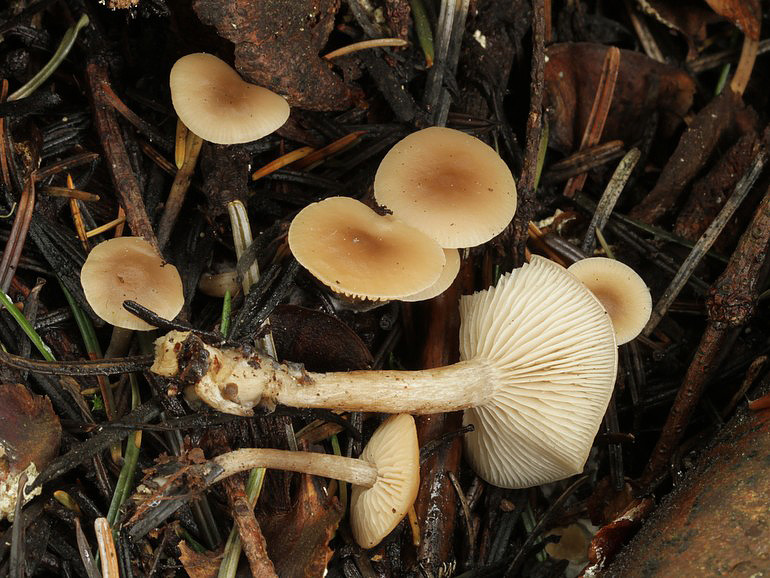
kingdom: Fungi
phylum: Basidiomycota
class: Agaricomycetes
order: Agaricales
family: Tricholomataceae
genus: Clitocybe
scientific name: Clitocybe fragrans
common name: vellugtende tragthat
